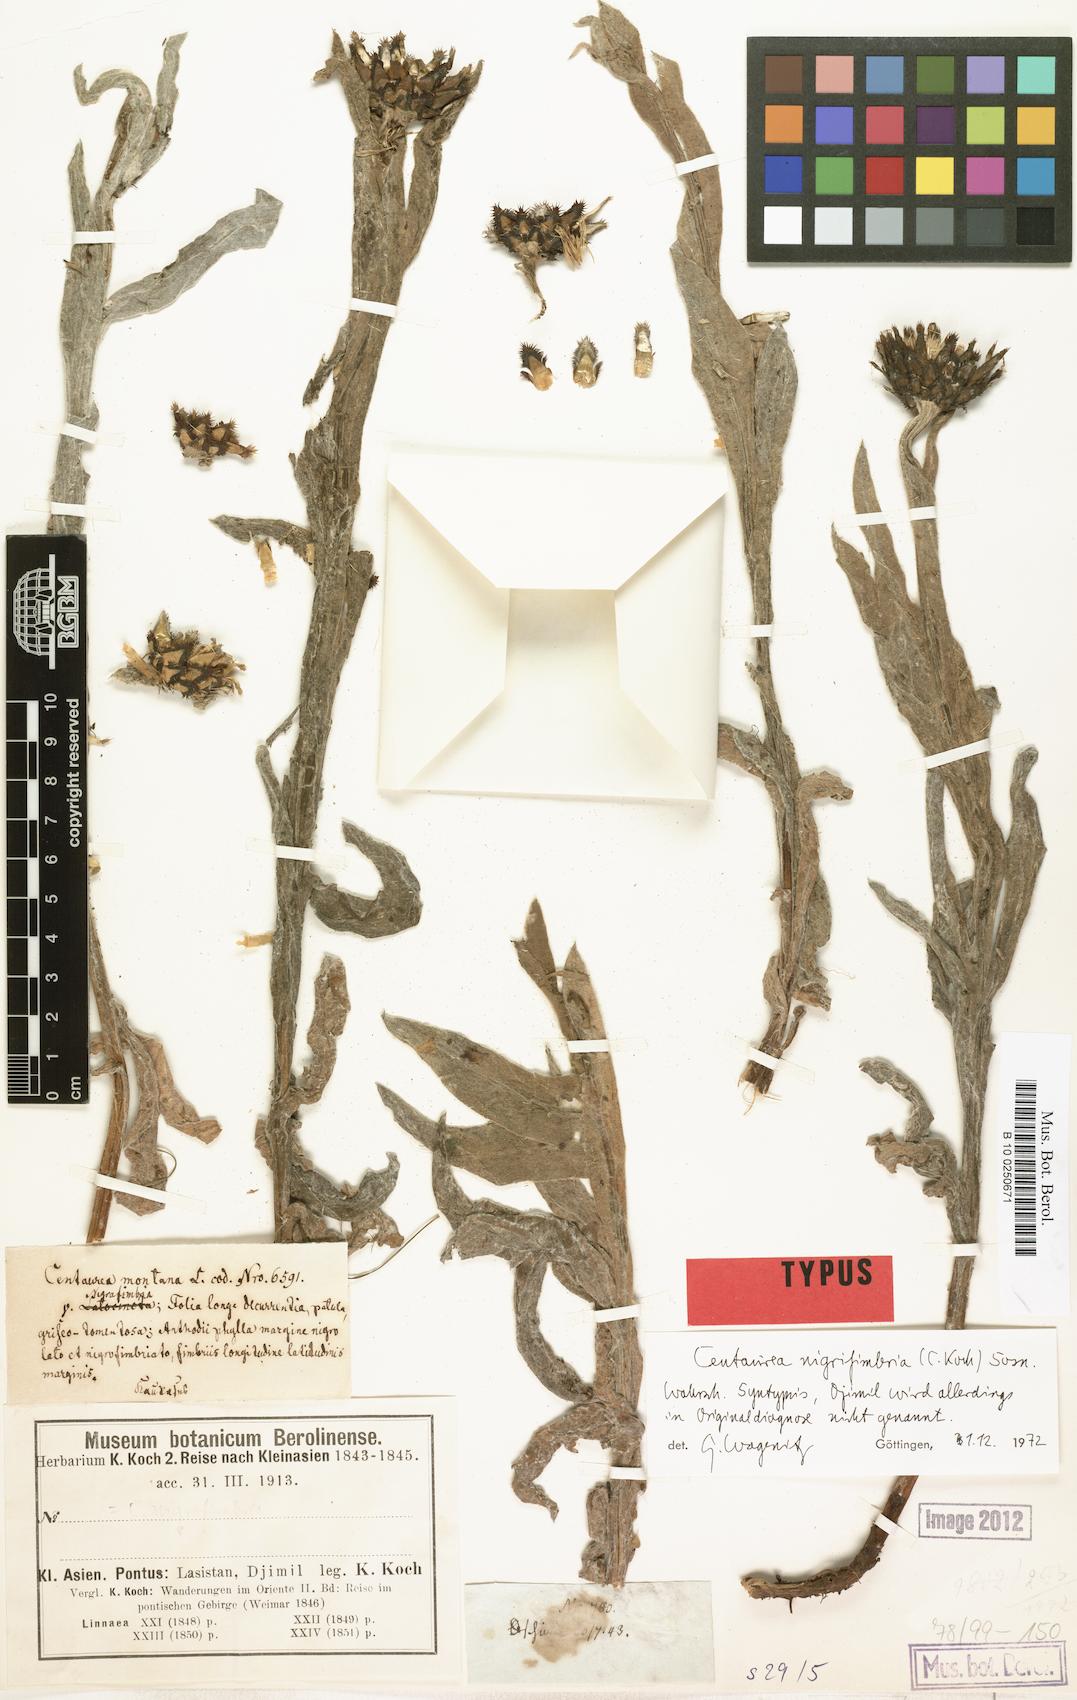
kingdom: Plantae
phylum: Tracheophyta
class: Magnoliopsida
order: Asterales
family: Asteraceae
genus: Centaurea
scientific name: Centaurea nigrofimbria
